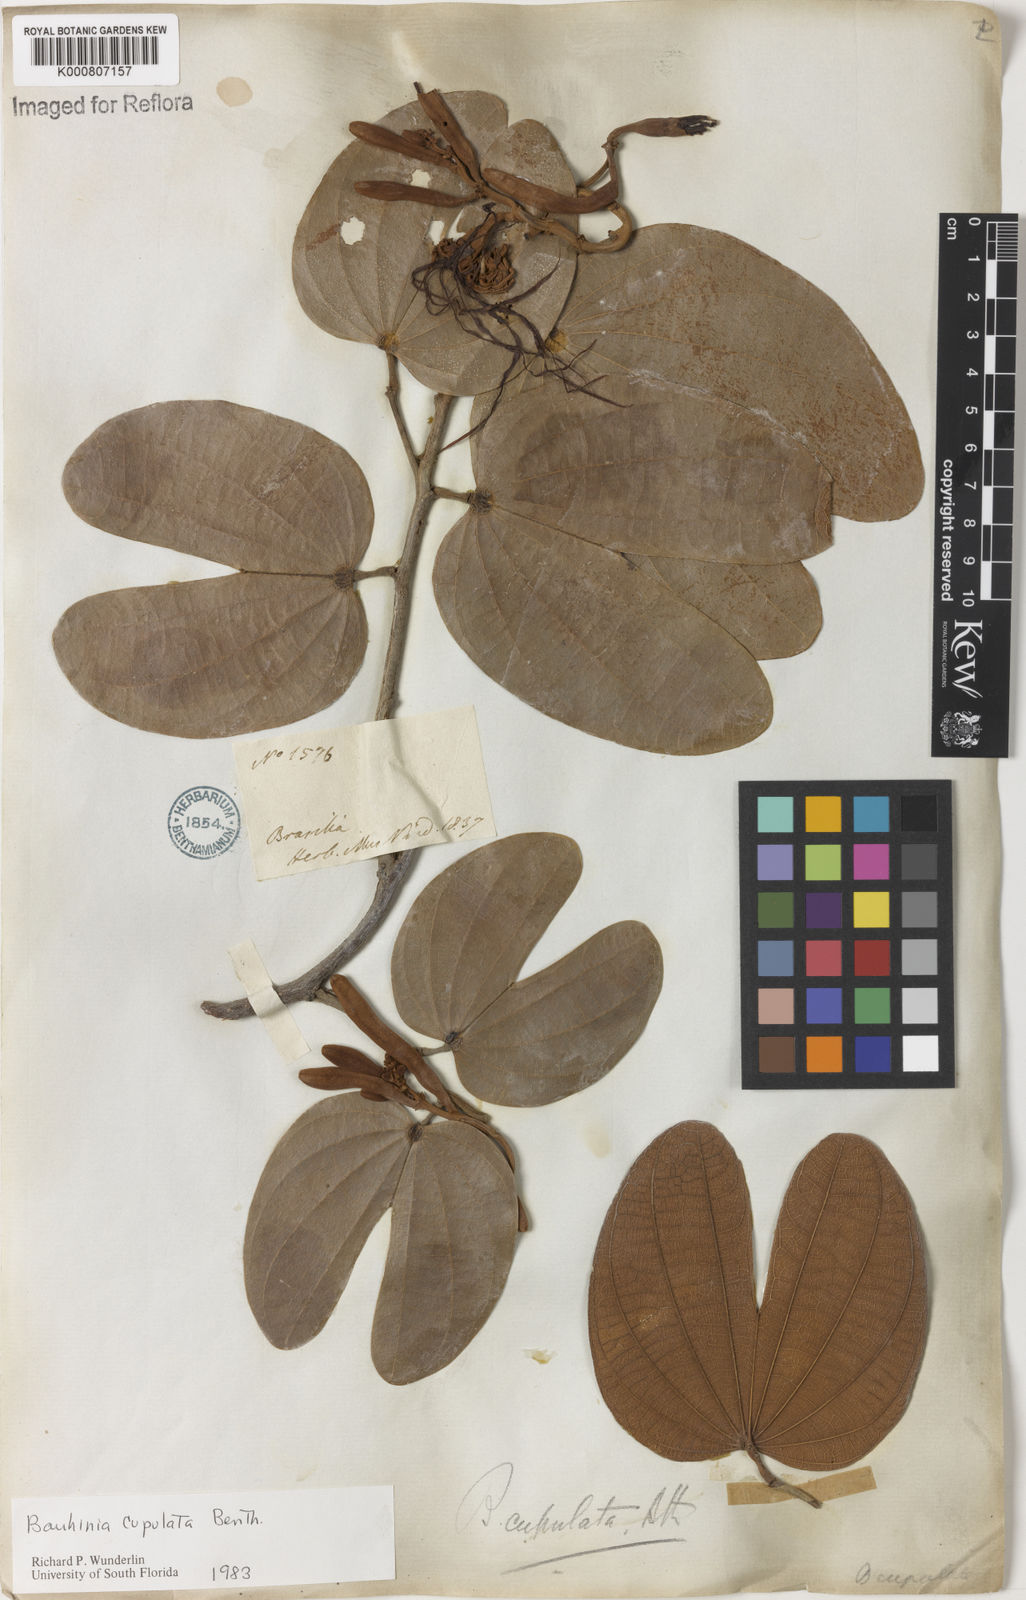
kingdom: Plantae
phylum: Tracheophyta
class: Magnoliopsida
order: Fabales
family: Fabaceae
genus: Bauhinia
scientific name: Bauhinia cupulata
